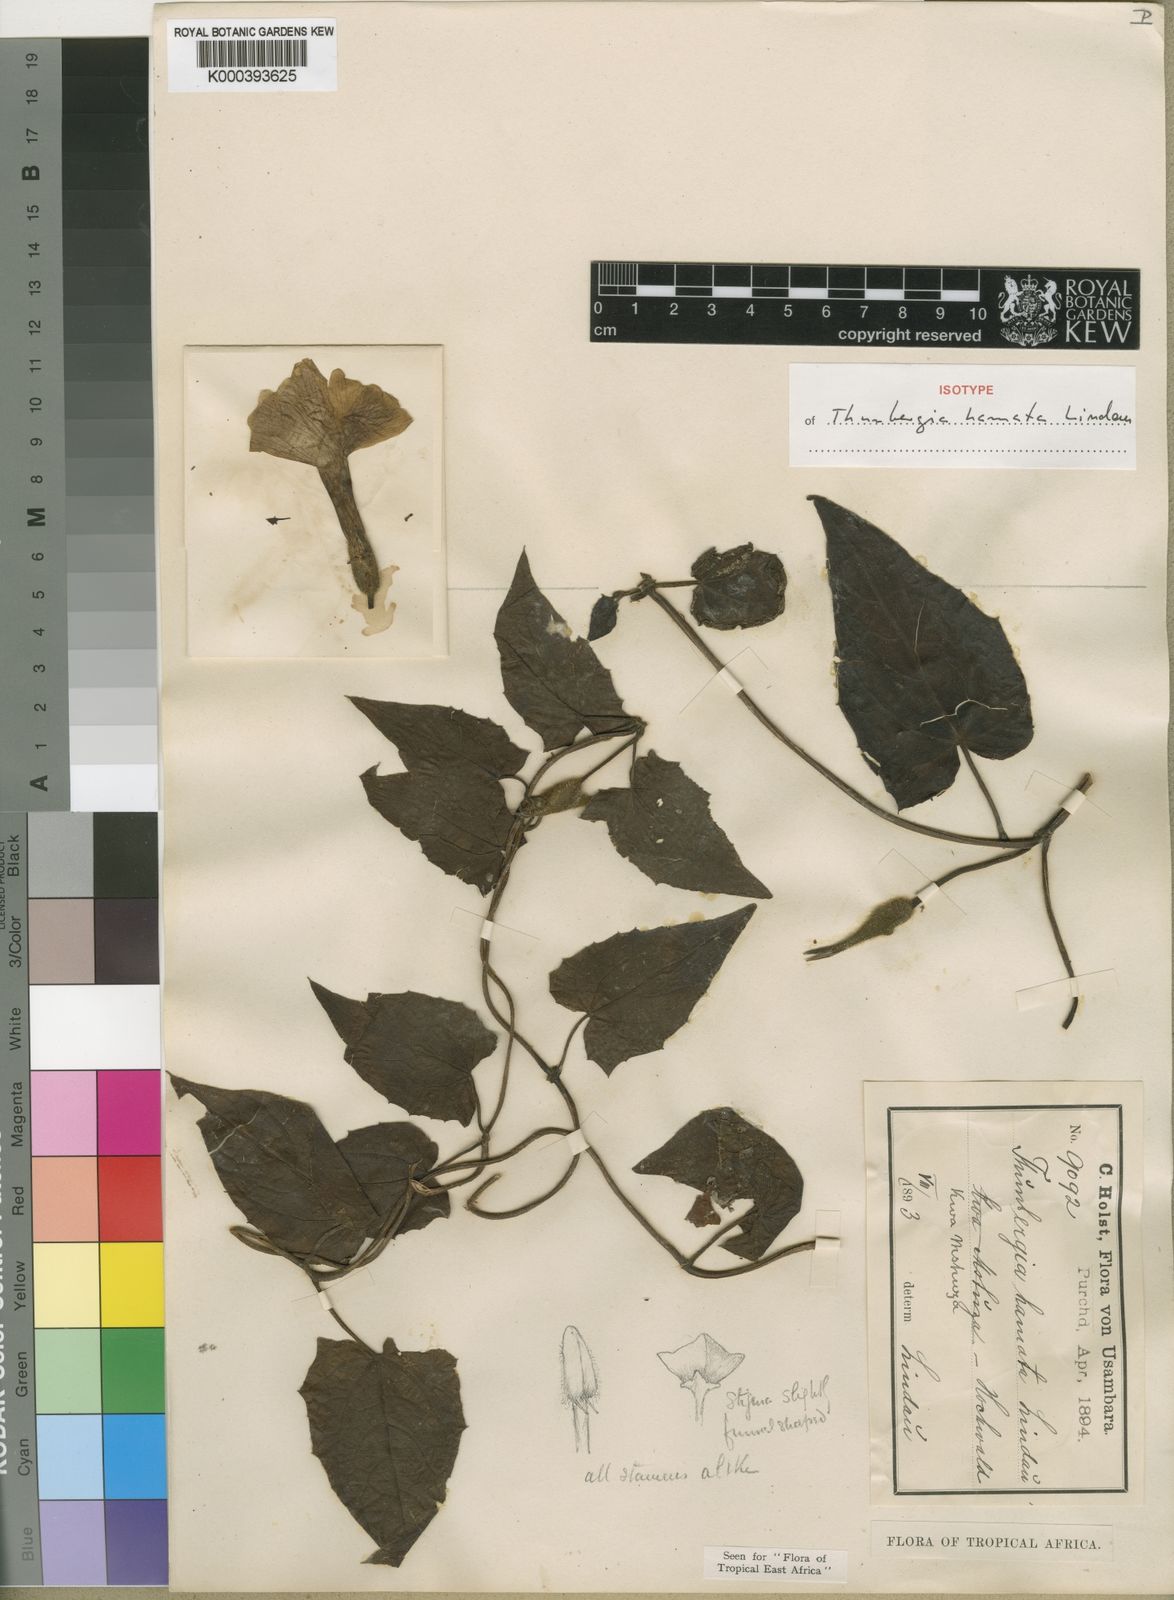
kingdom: Plantae
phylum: Tracheophyta
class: Magnoliopsida
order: Lamiales
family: Acanthaceae
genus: Thunbergia
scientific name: Thunbergia
